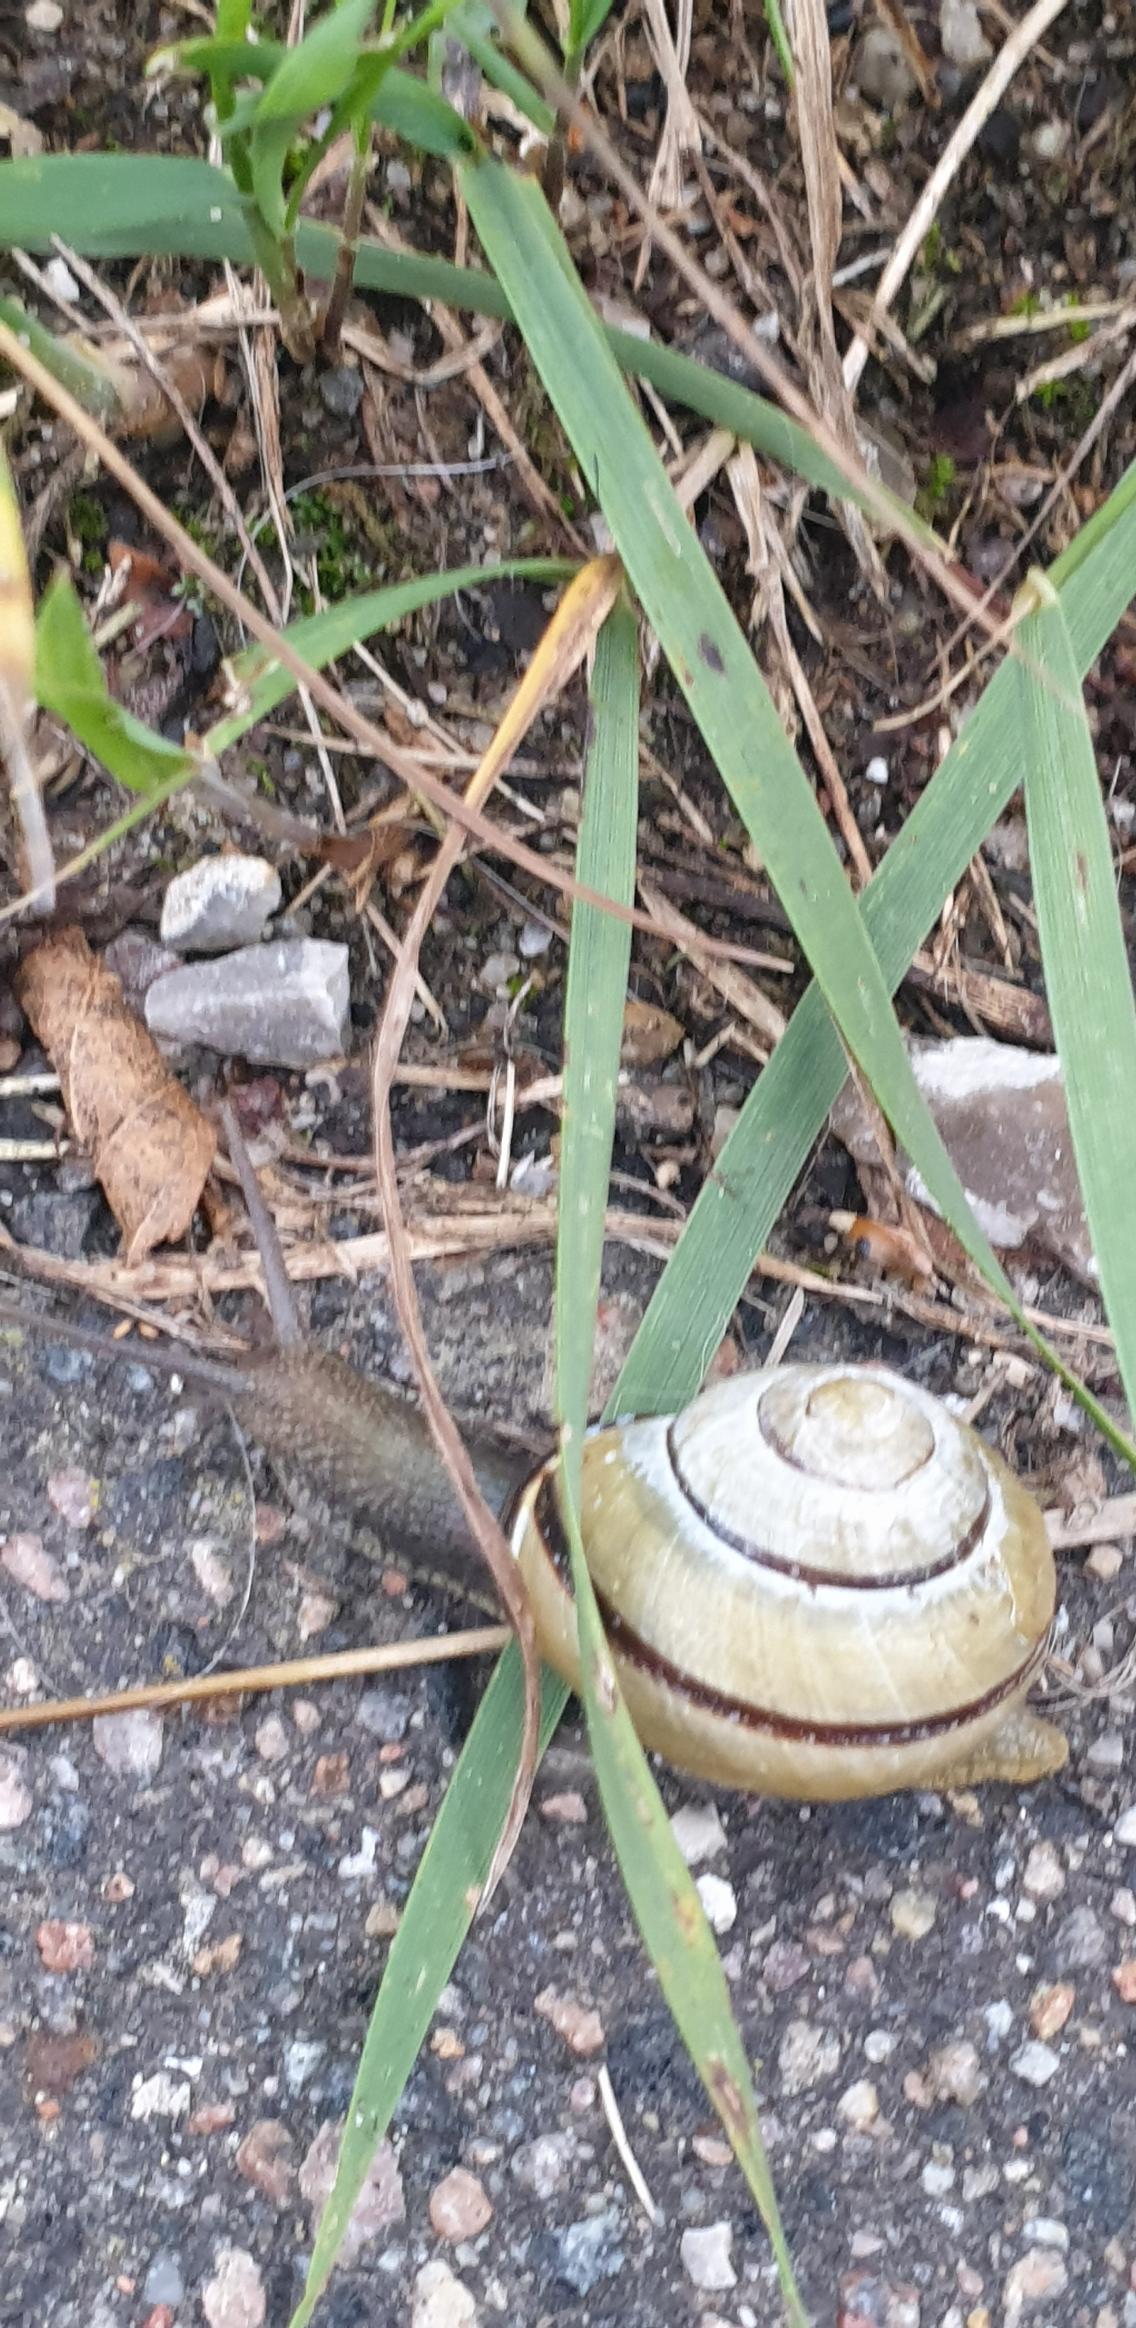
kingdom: Animalia
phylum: Mollusca
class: Gastropoda
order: Stylommatophora
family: Helicidae
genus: Cepaea
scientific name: Cepaea nemoralis
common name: Lundsnegl
